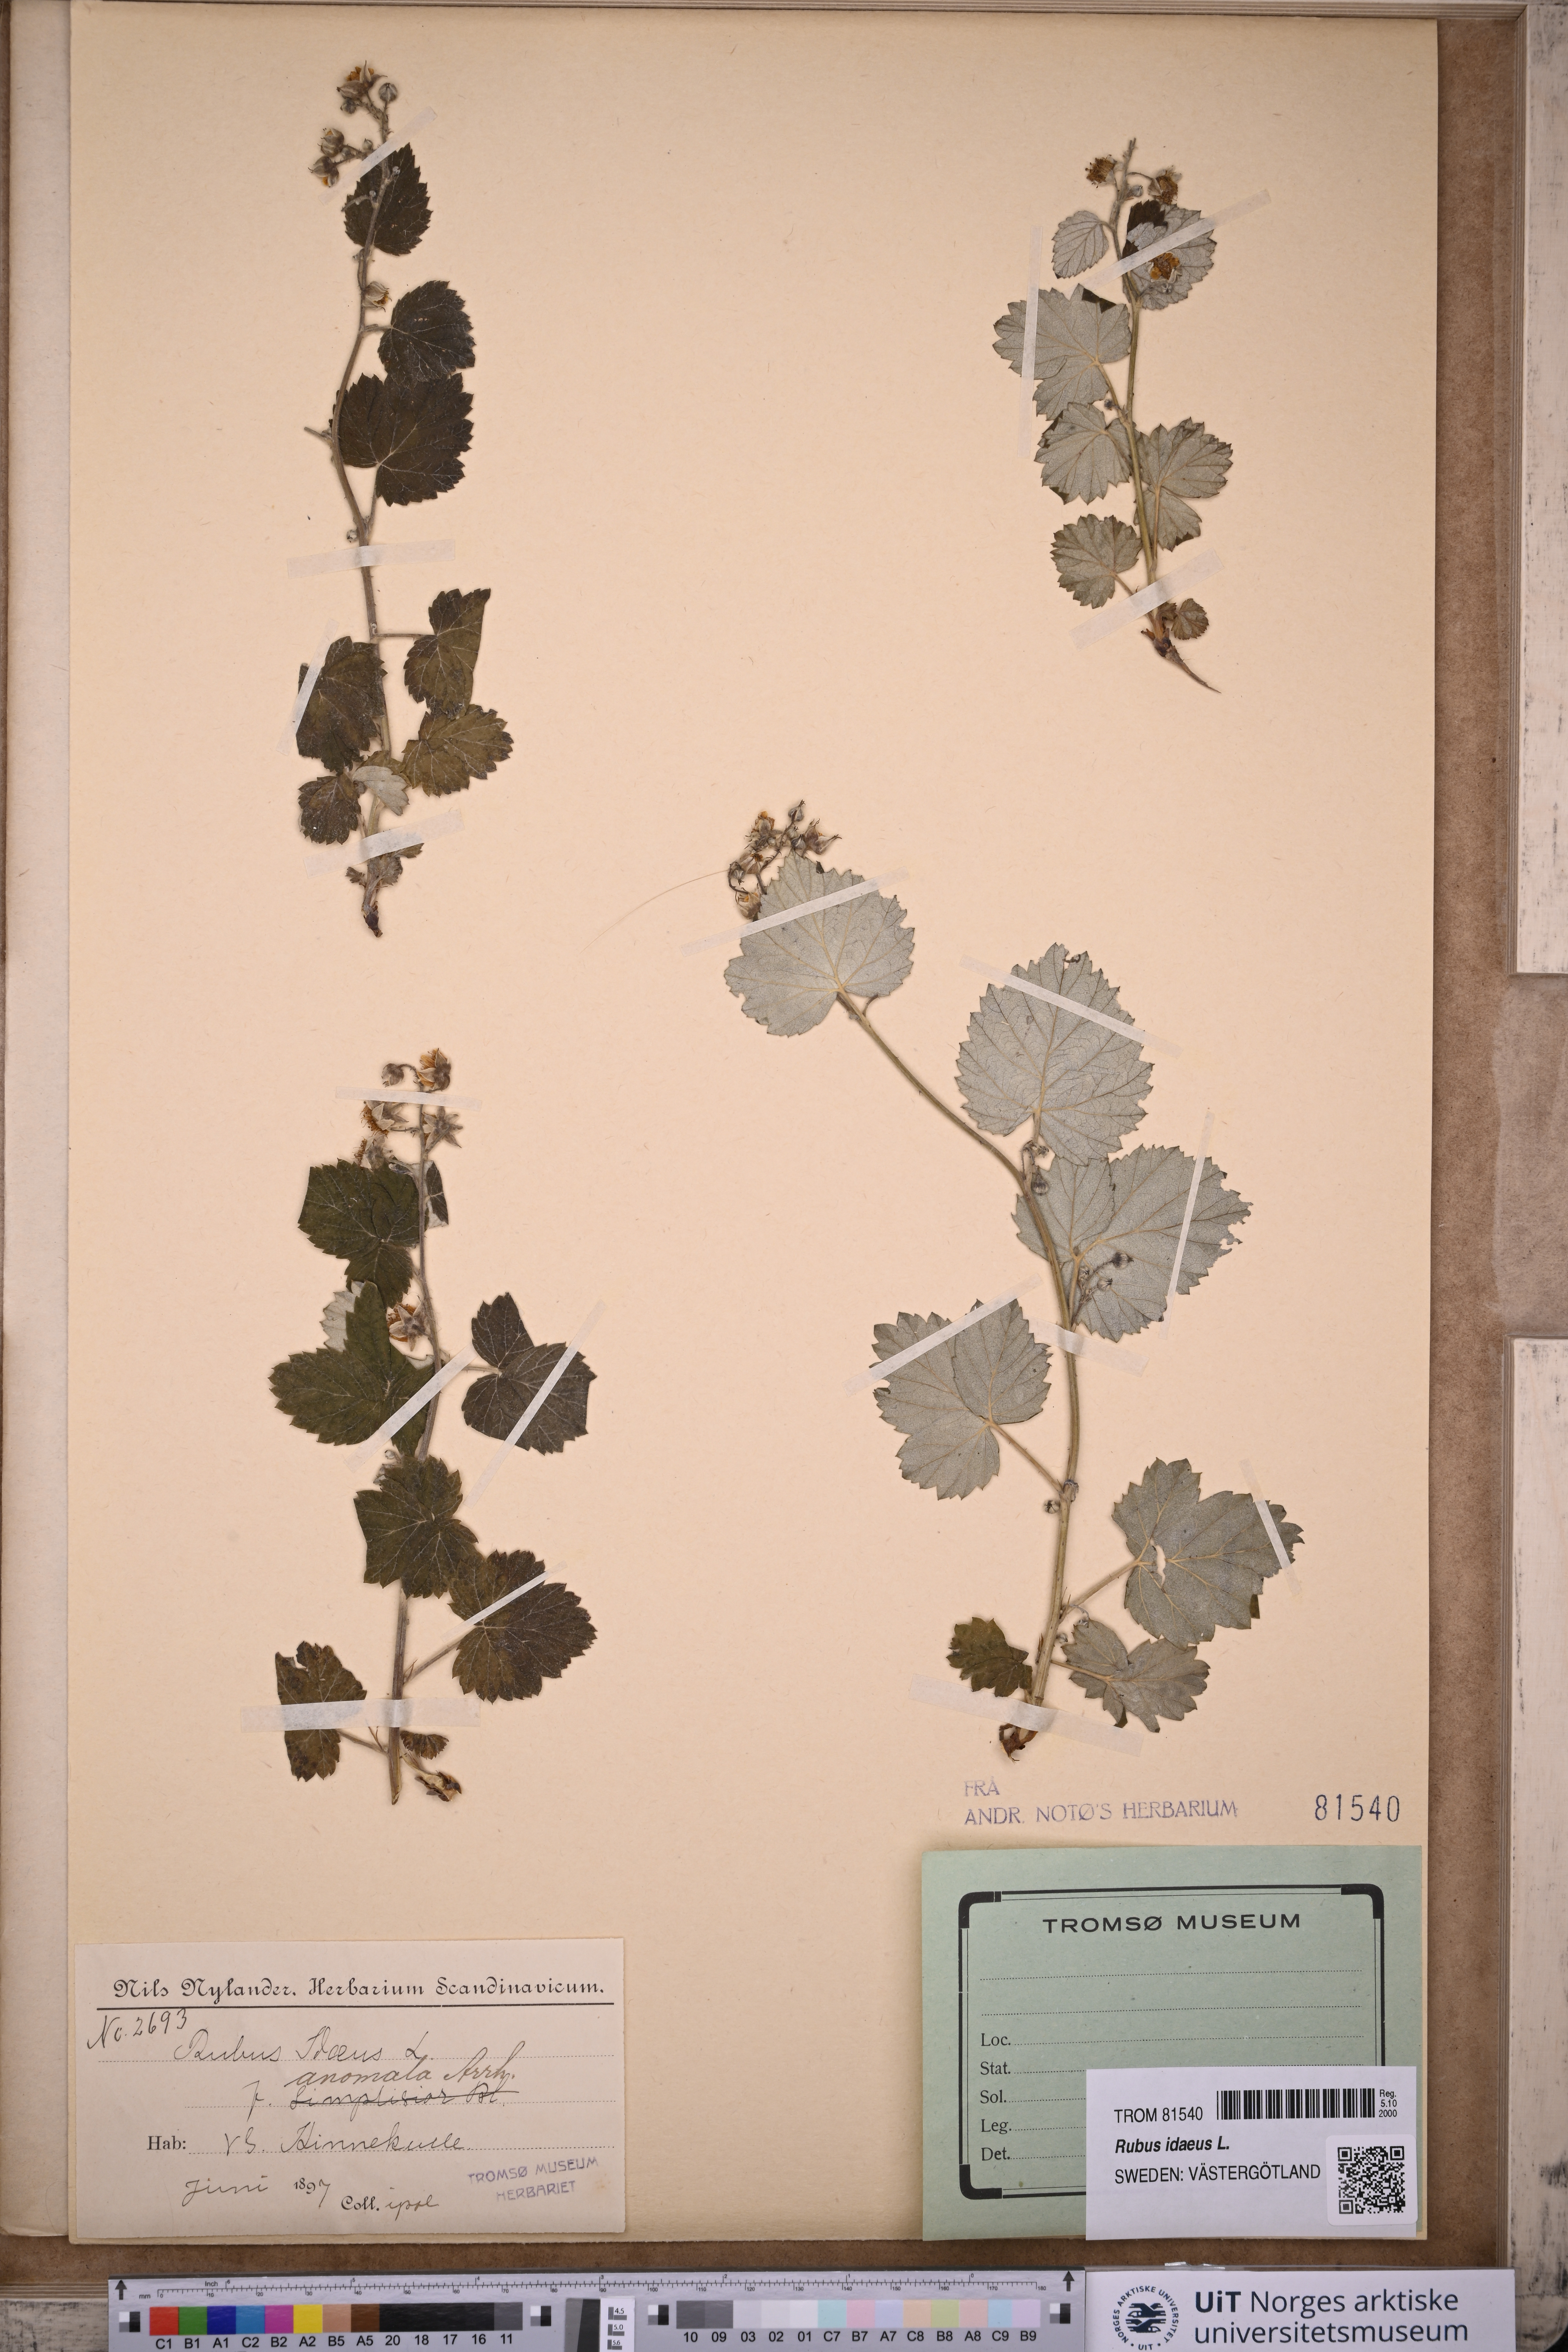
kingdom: Plantae
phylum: Tracheophyta
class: Magnoliopsida
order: Rosales
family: Rosaceae
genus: Rubus
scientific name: Rubus idaeus
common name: Raspberry
